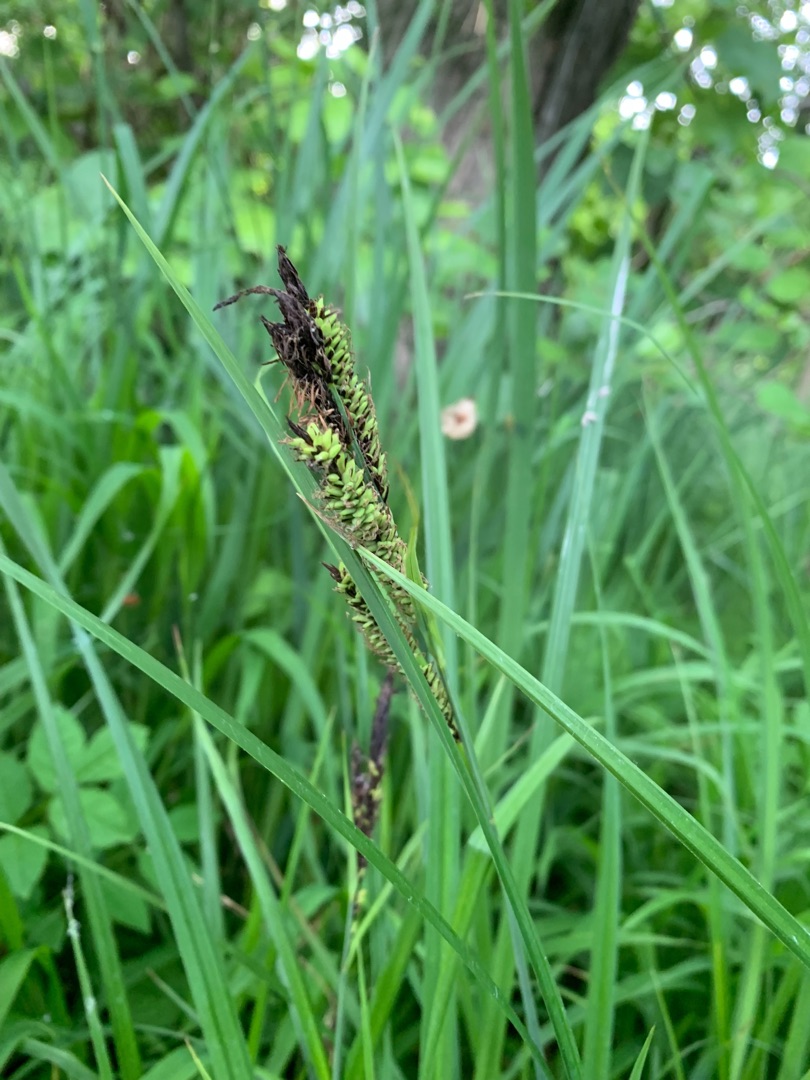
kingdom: Plantae
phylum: Tracheophyta
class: Liliopsida
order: Poales
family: Cyperaceae
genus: Carex
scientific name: Carex acutiformis
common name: Kær-star
